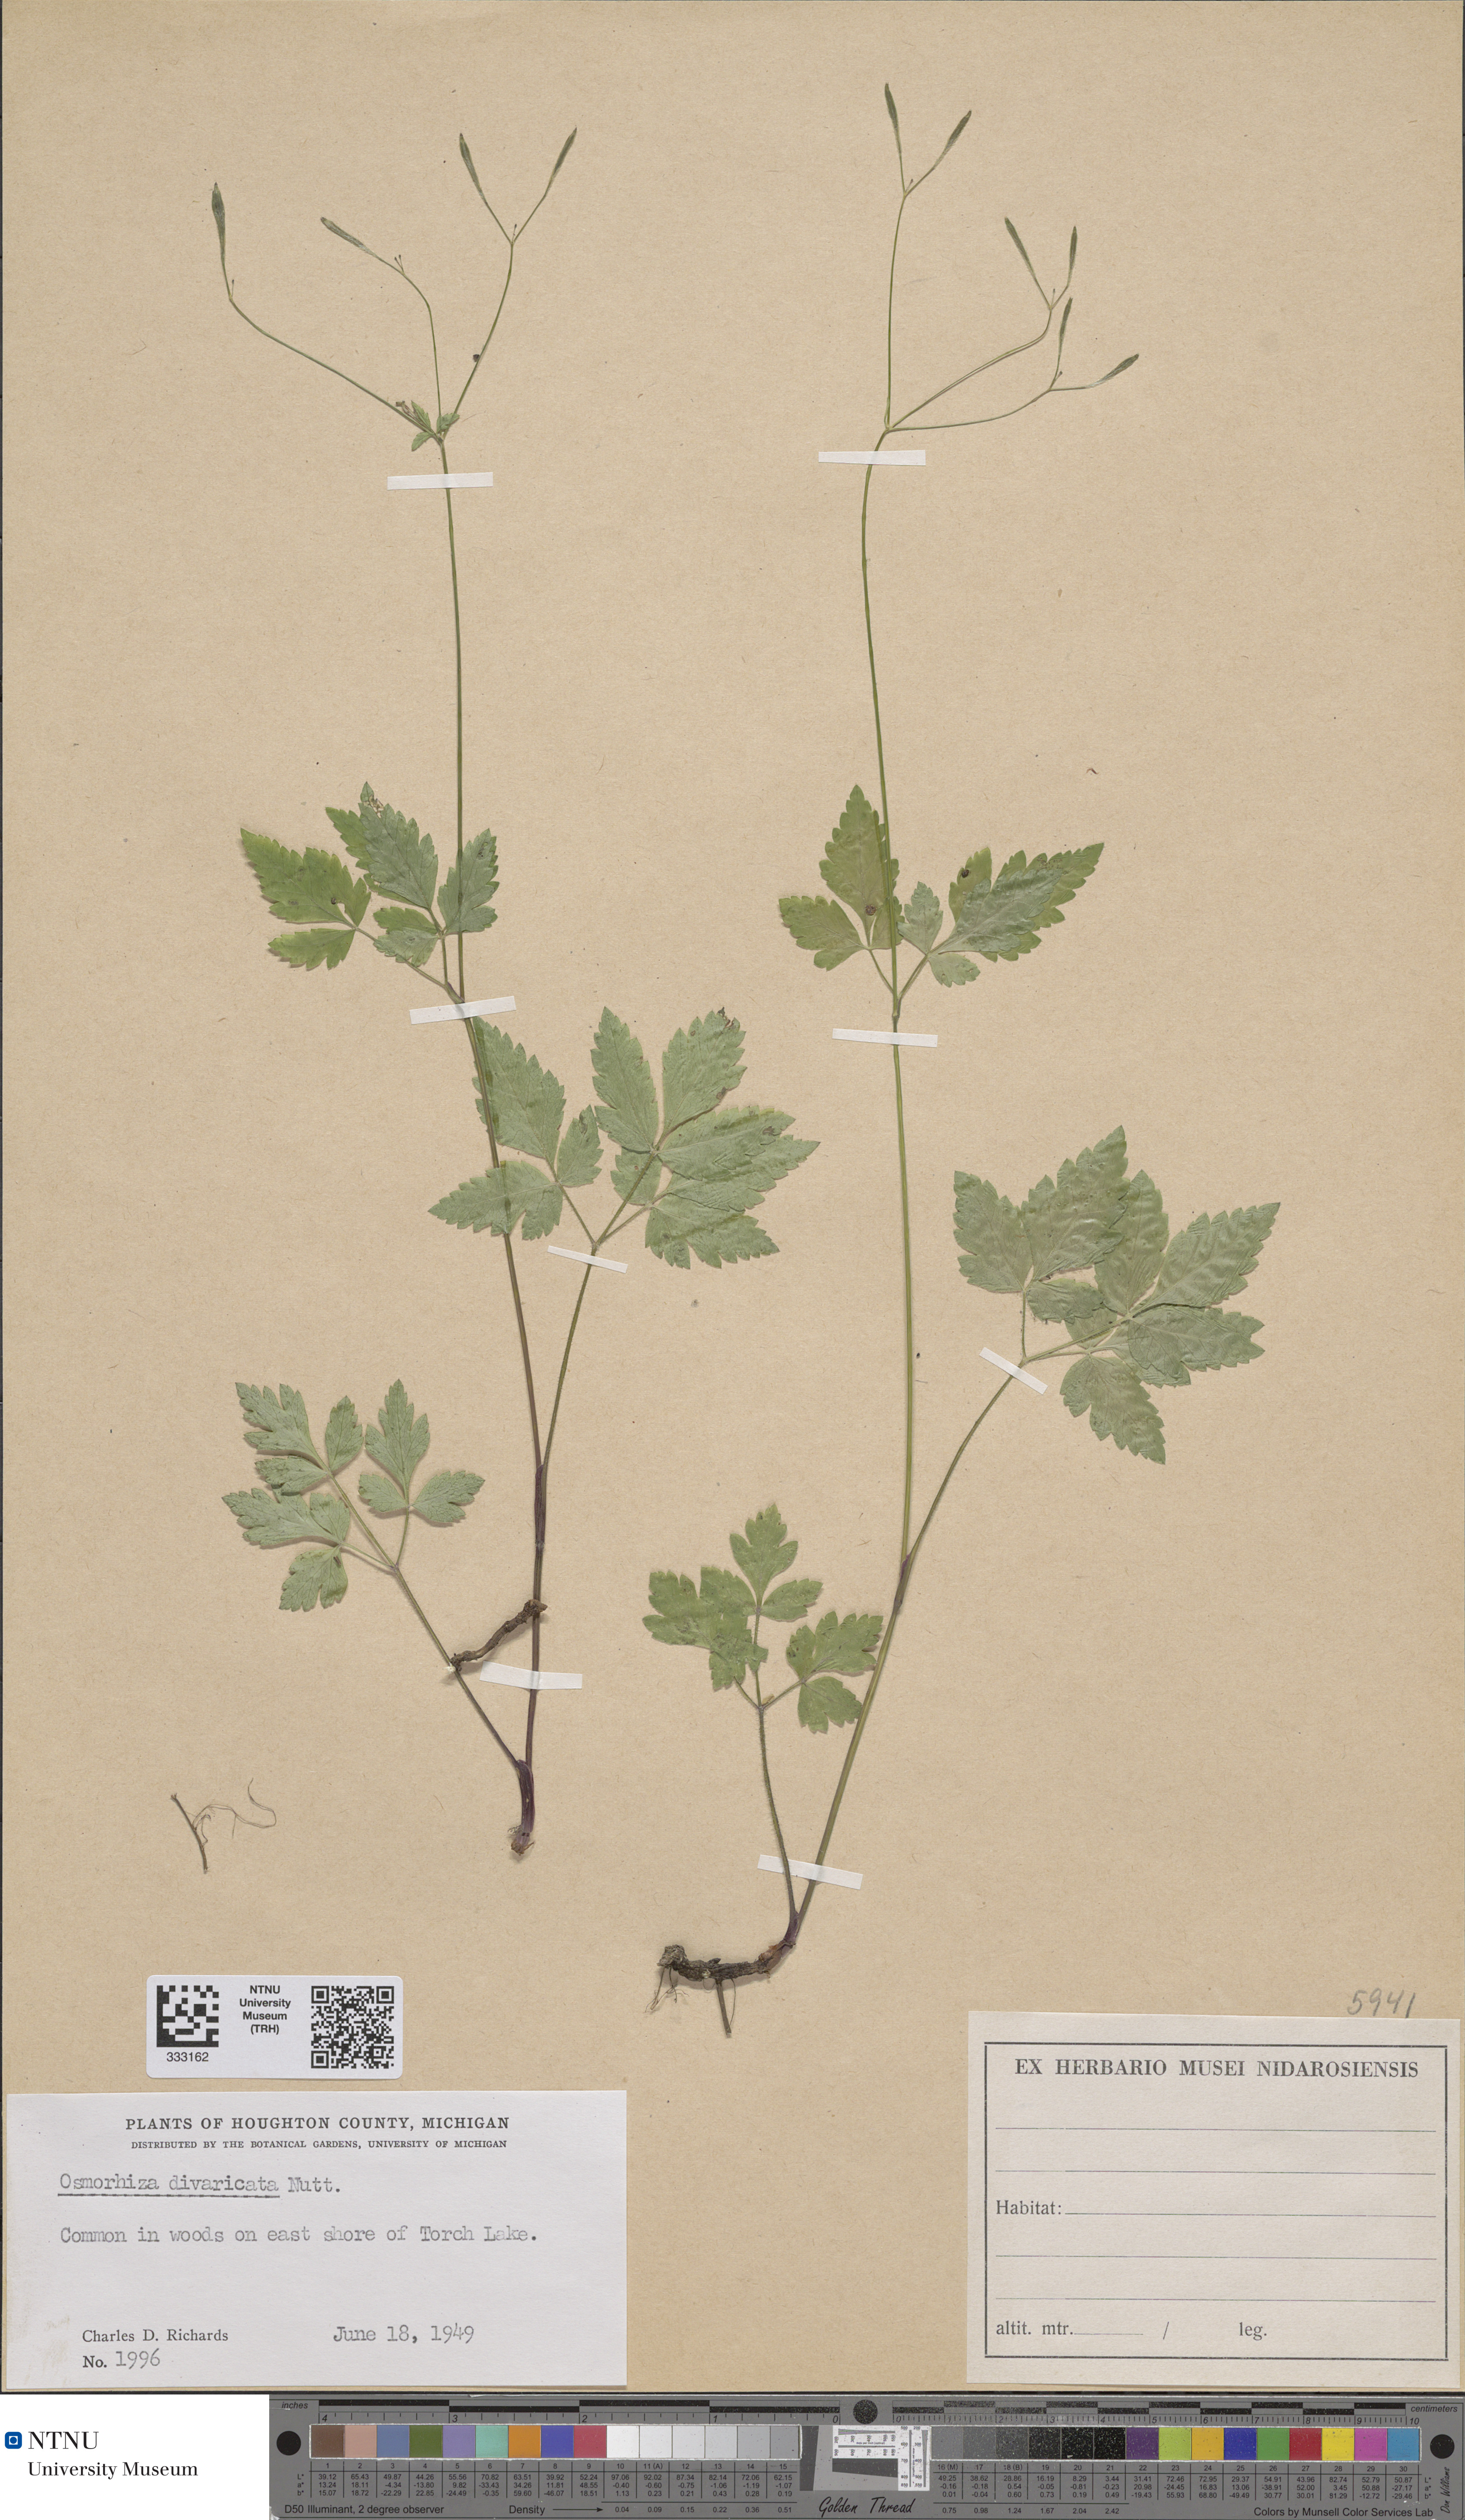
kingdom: Plantae
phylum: Tracheophyta
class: Magnoliopsida
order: Apiales
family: Apiaceae
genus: Osmorhiza
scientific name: Osmorhiza berteroi
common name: Mountain sweet cicely
